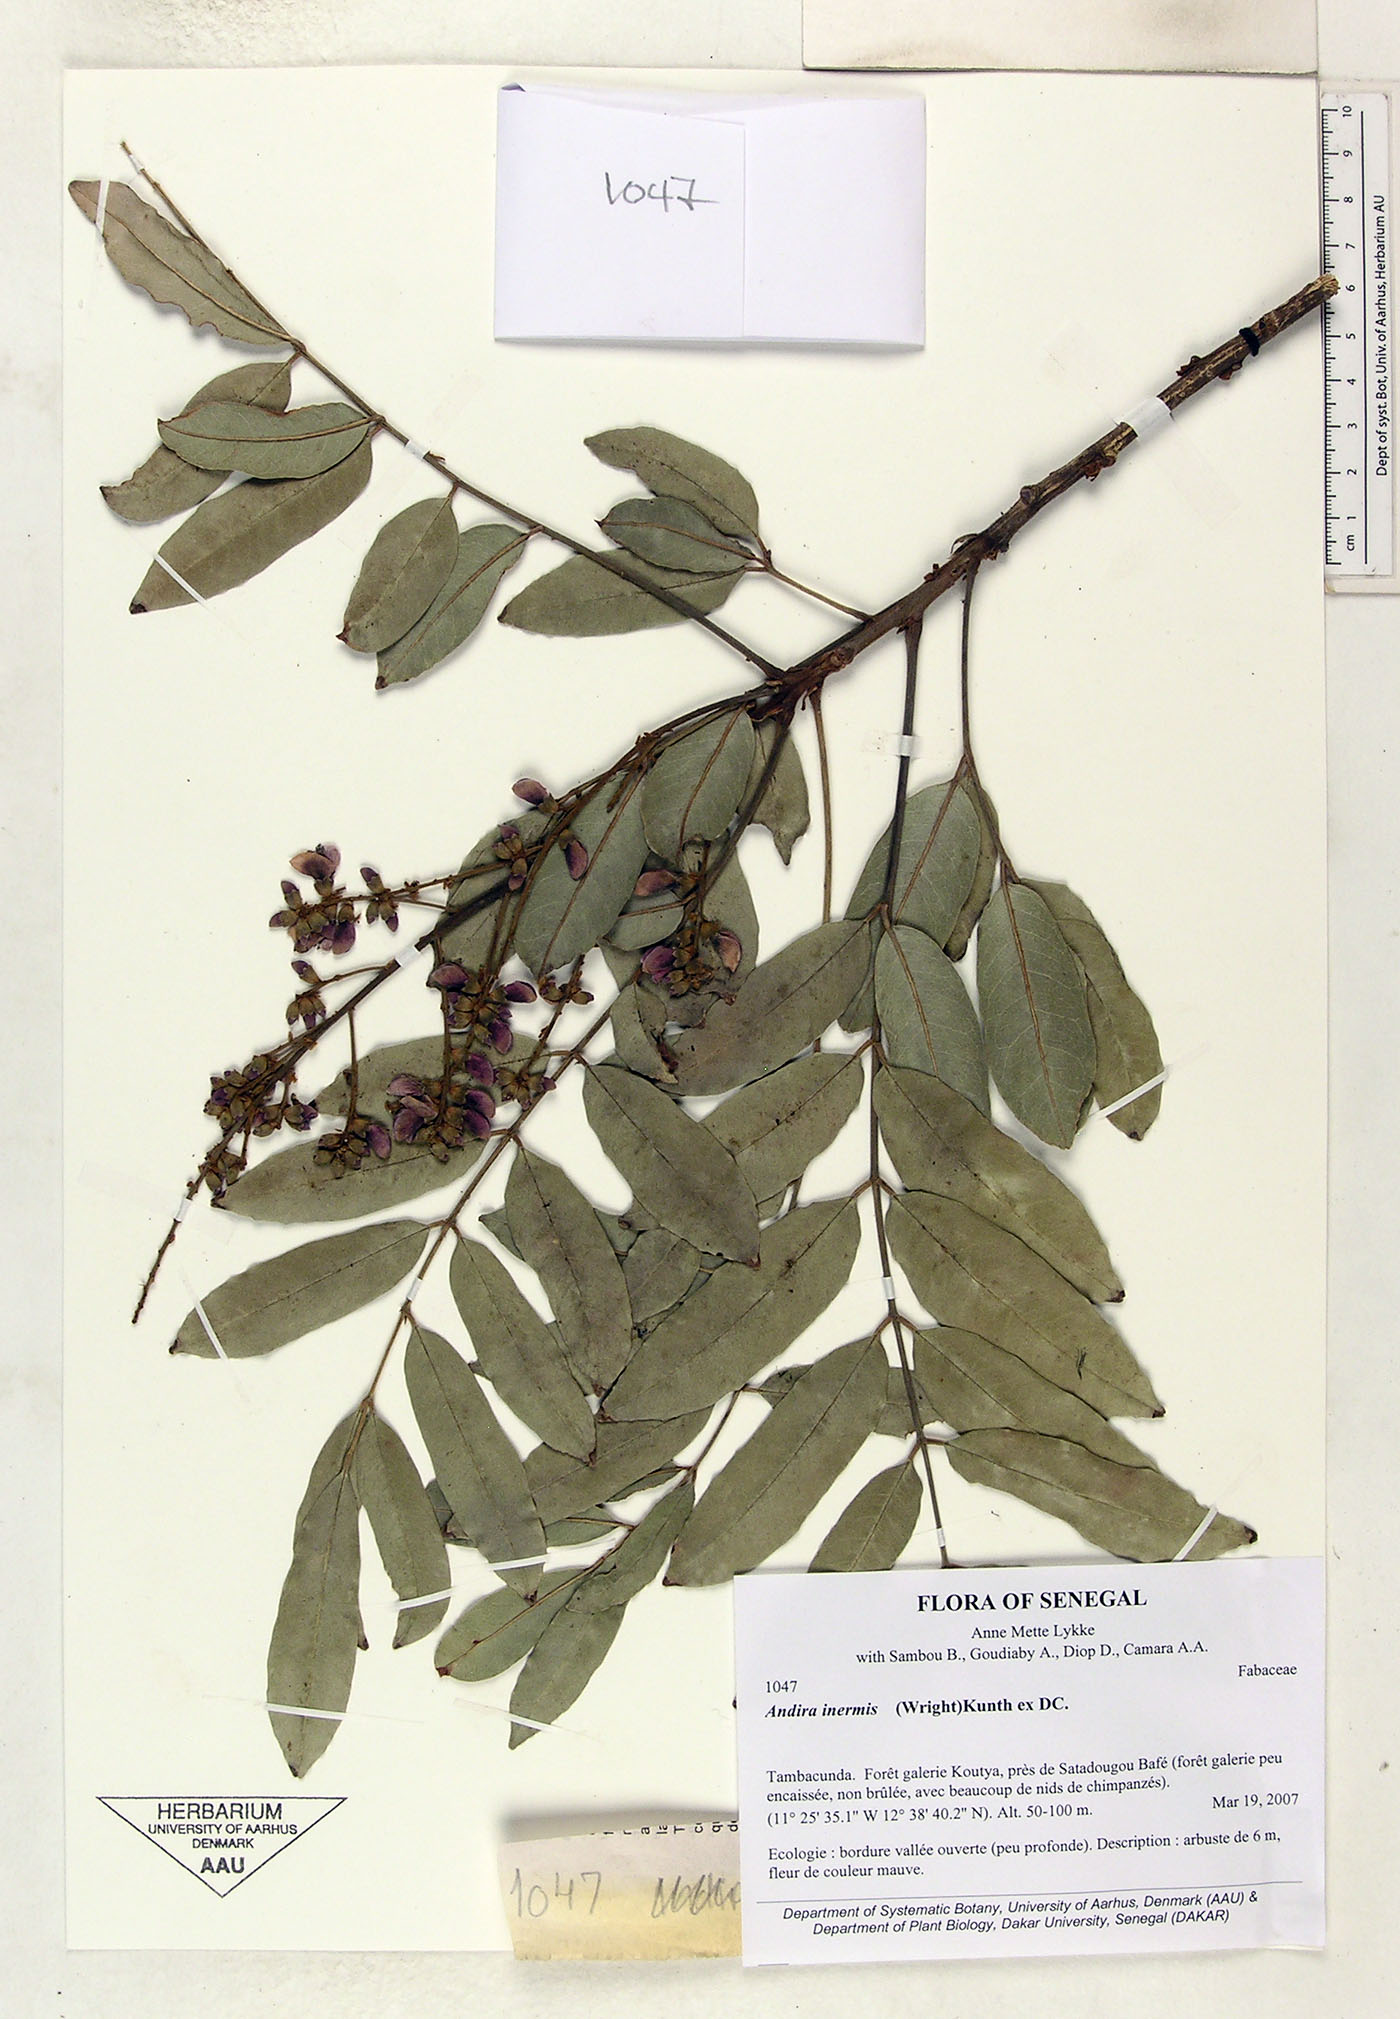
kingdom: Plantae
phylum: Tracheophyta
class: Magnoliopsida
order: Fabales
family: Fabaceae
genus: Andira
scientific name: Andira inermis
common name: Angelin
